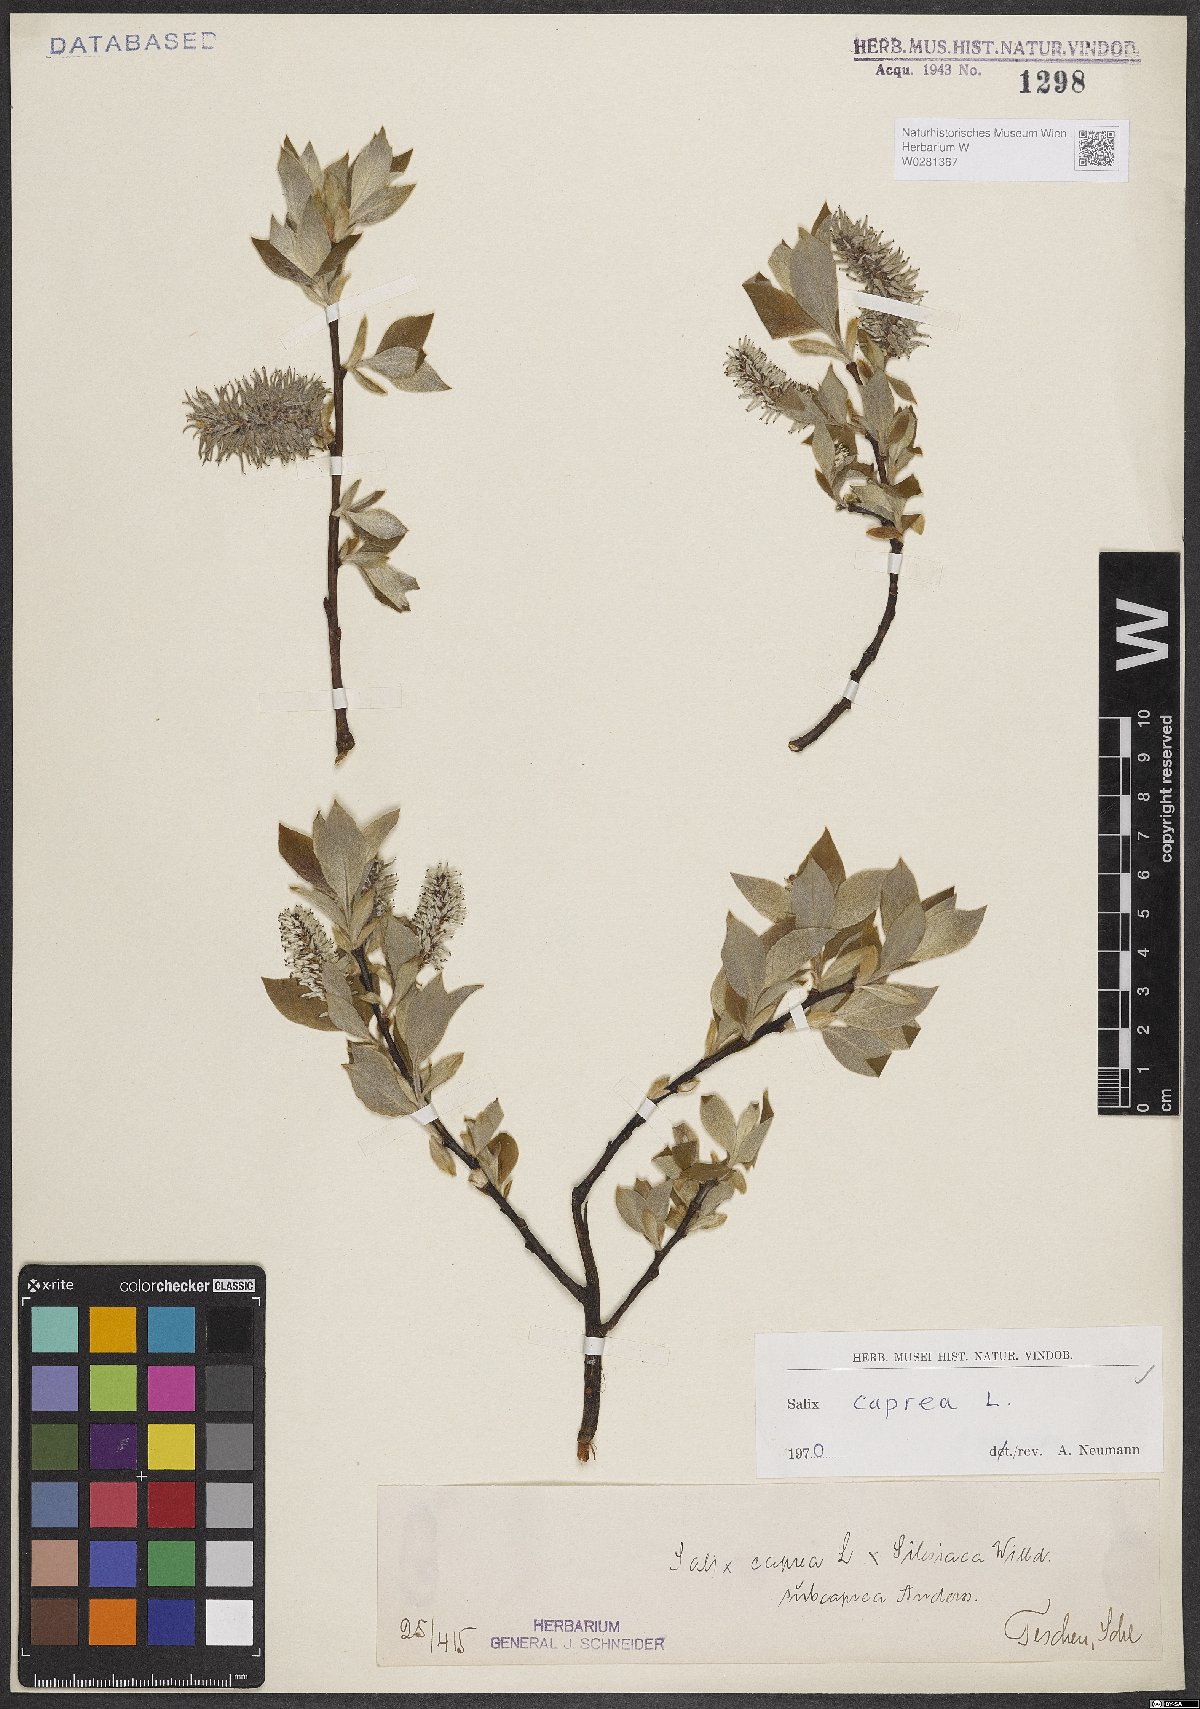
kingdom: Plantae
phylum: Tracheophyta
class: Magnoliopsida
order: Malpighiales
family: Salicaceae
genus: Salix
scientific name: Salix caprea
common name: Goat willow
